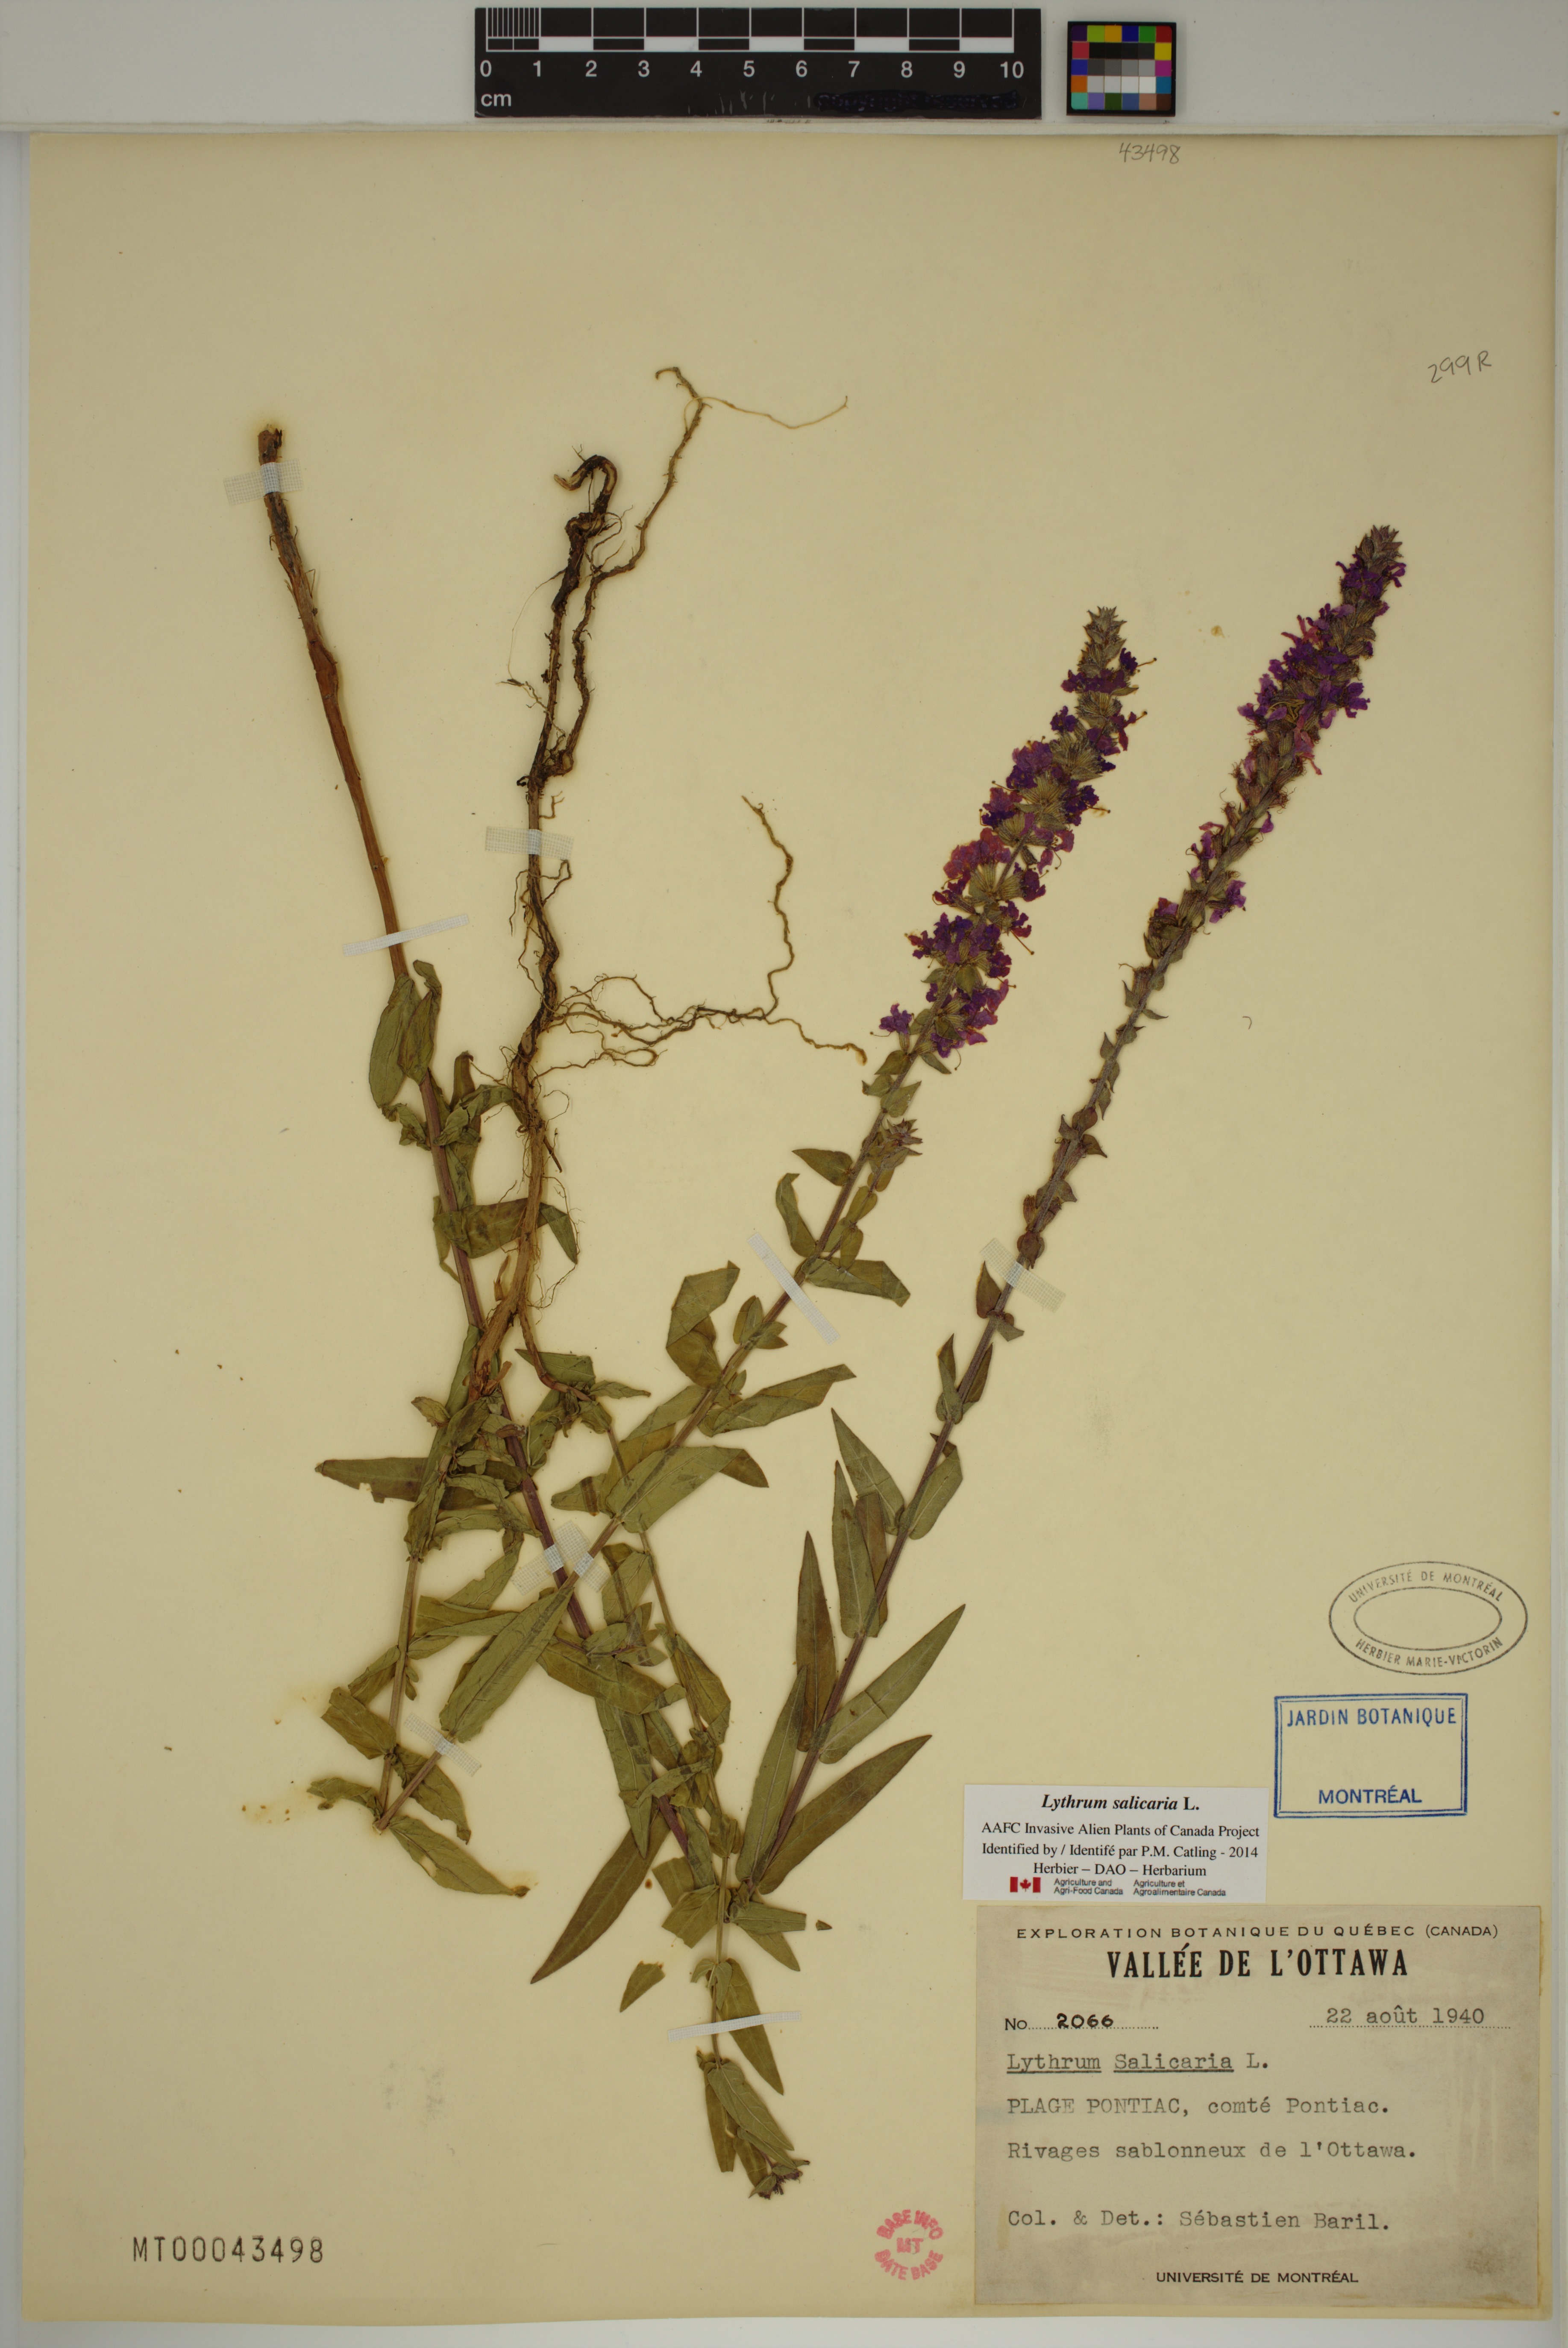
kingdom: Plantae
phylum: Tracheophyta
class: Magnoliopsida
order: Myrtales
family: Lythraceae
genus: Lythrum
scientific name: Lythrum salicaria
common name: Purple loosestrife
